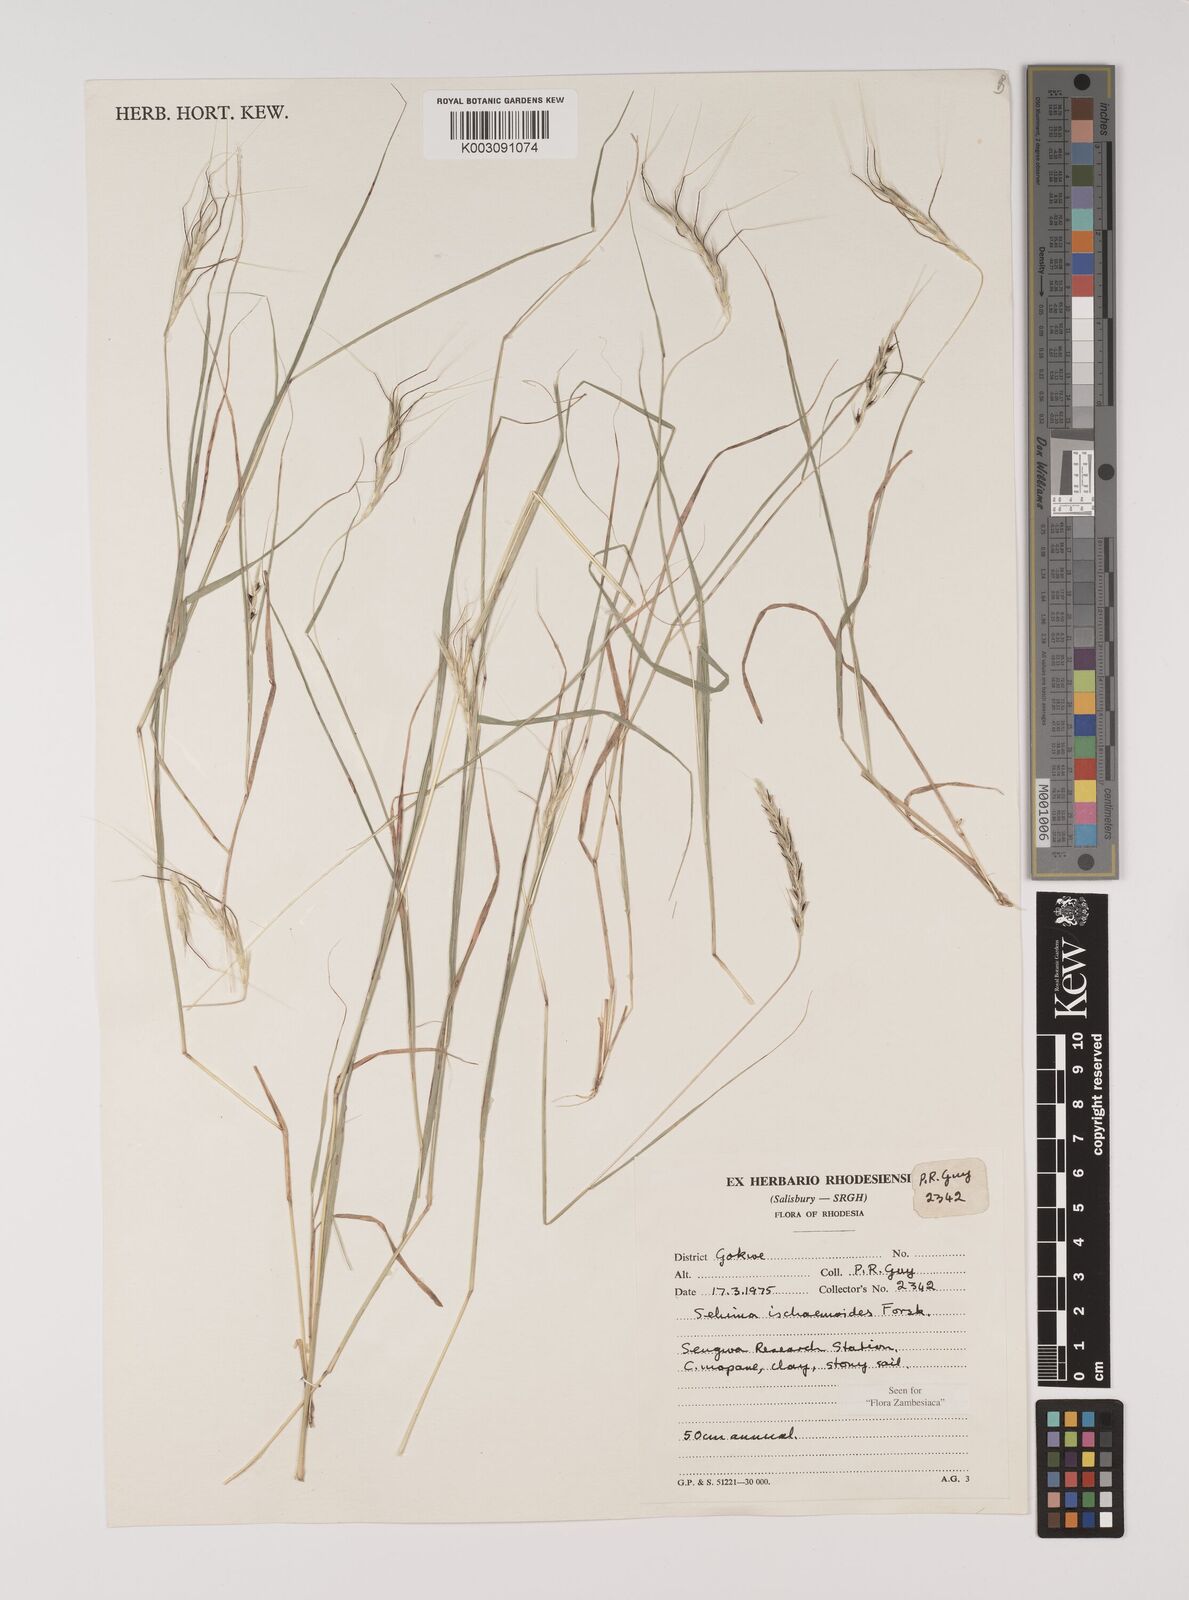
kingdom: Plantae
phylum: Tracheophyta
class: Liliopsida
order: Poales
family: Poaceae
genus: Sehima
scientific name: Sehima ischaemoides
